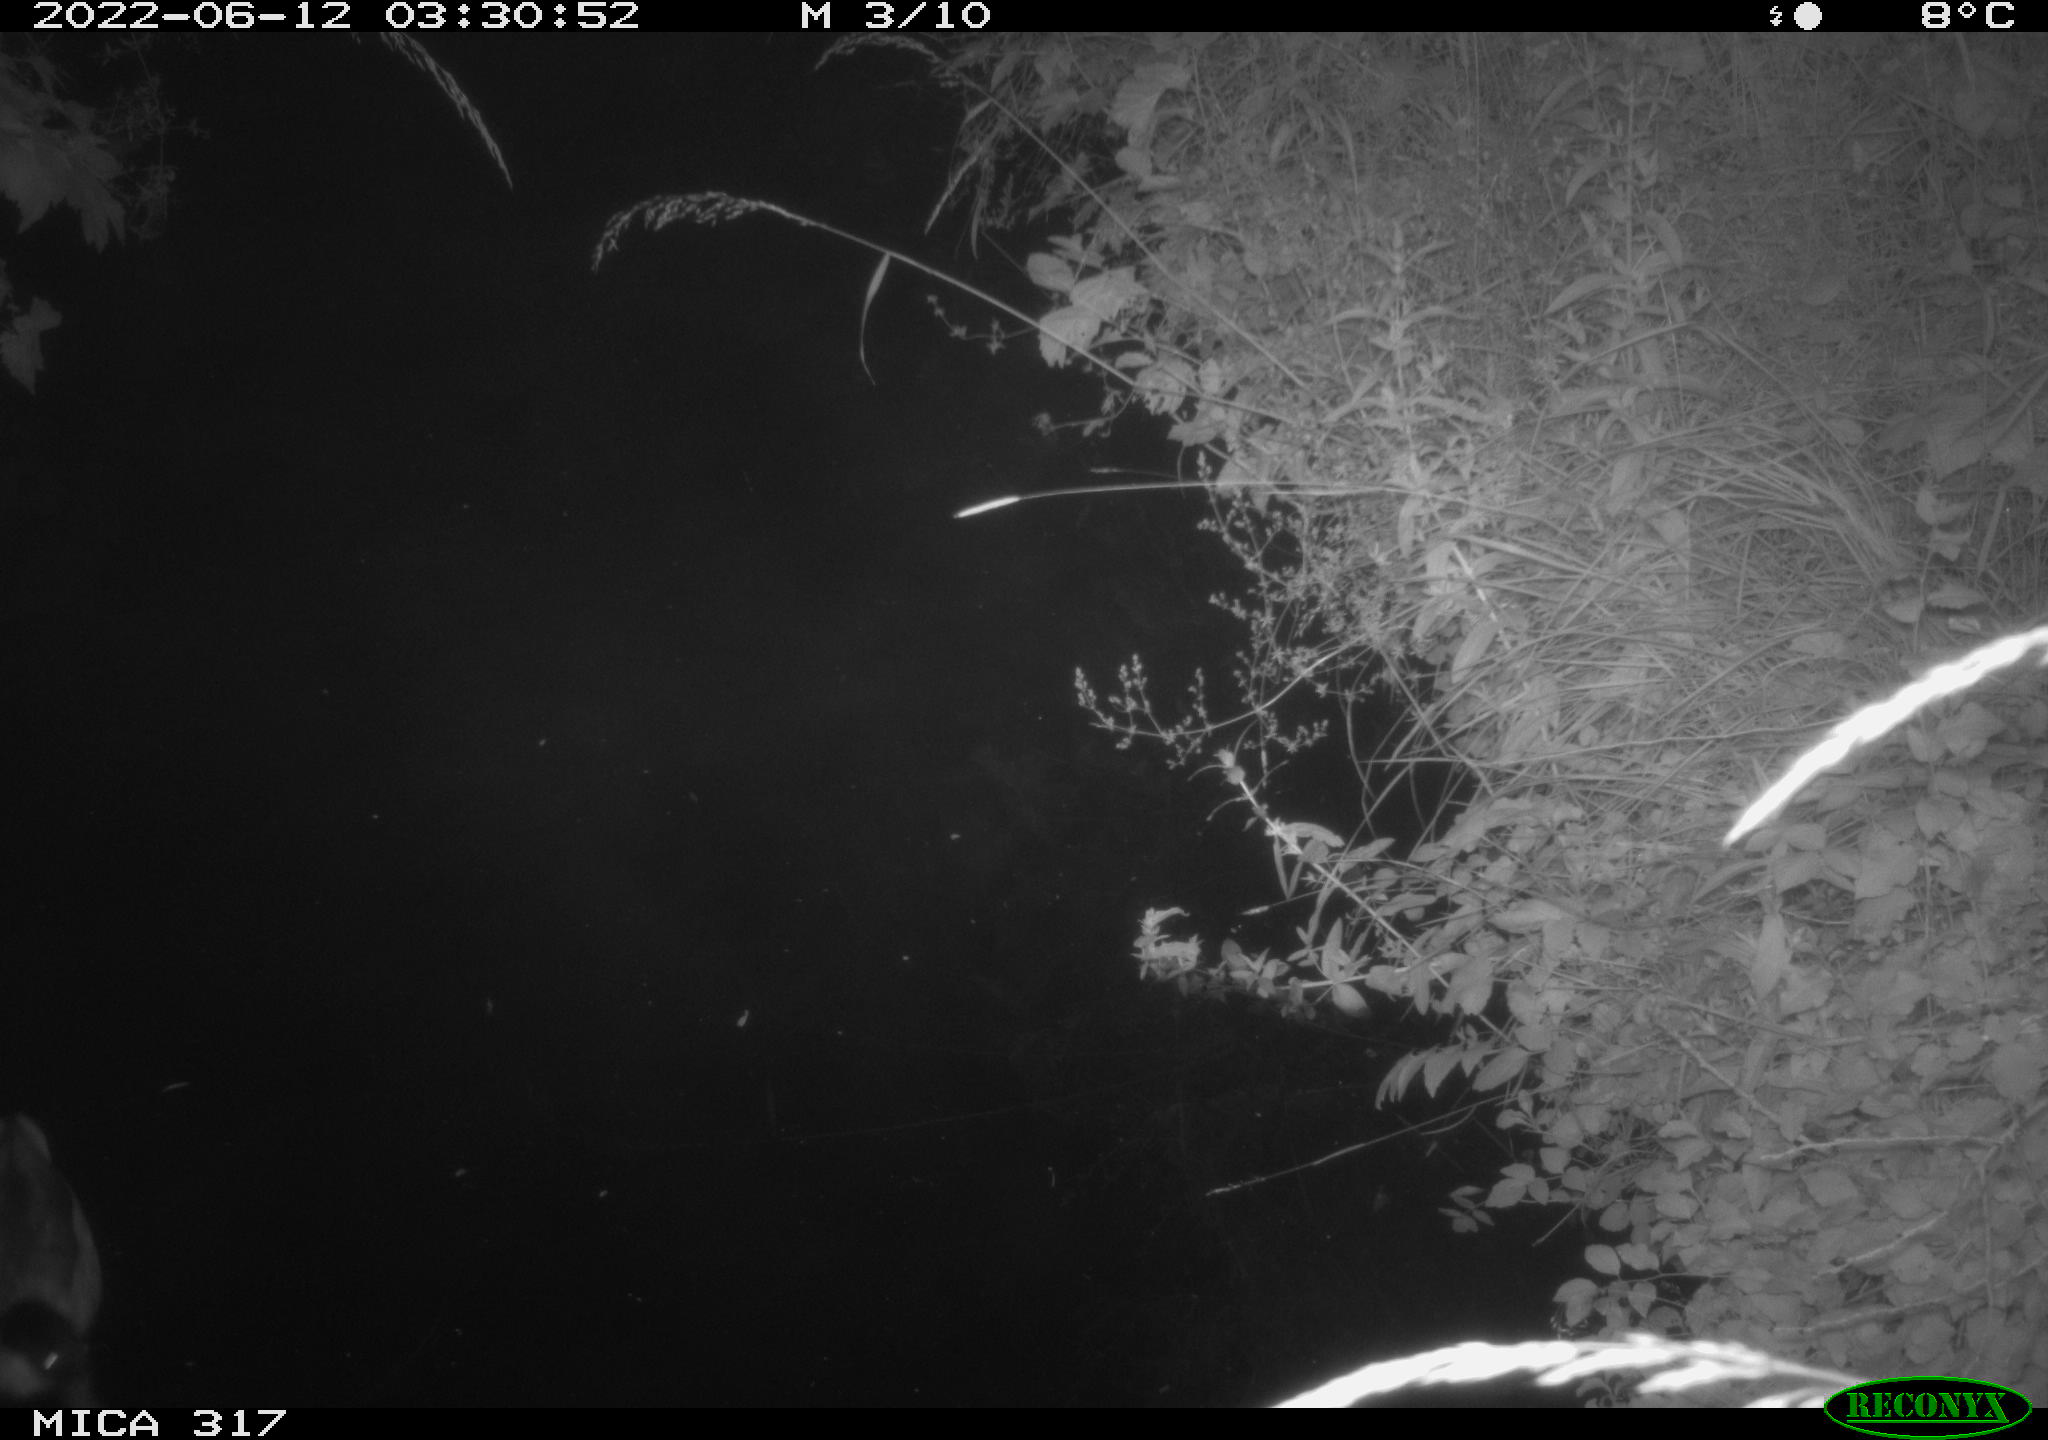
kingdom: Animalia
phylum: Chordata
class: Aves
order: Anseriformes
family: Anatidae
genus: Anas
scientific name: Anas
